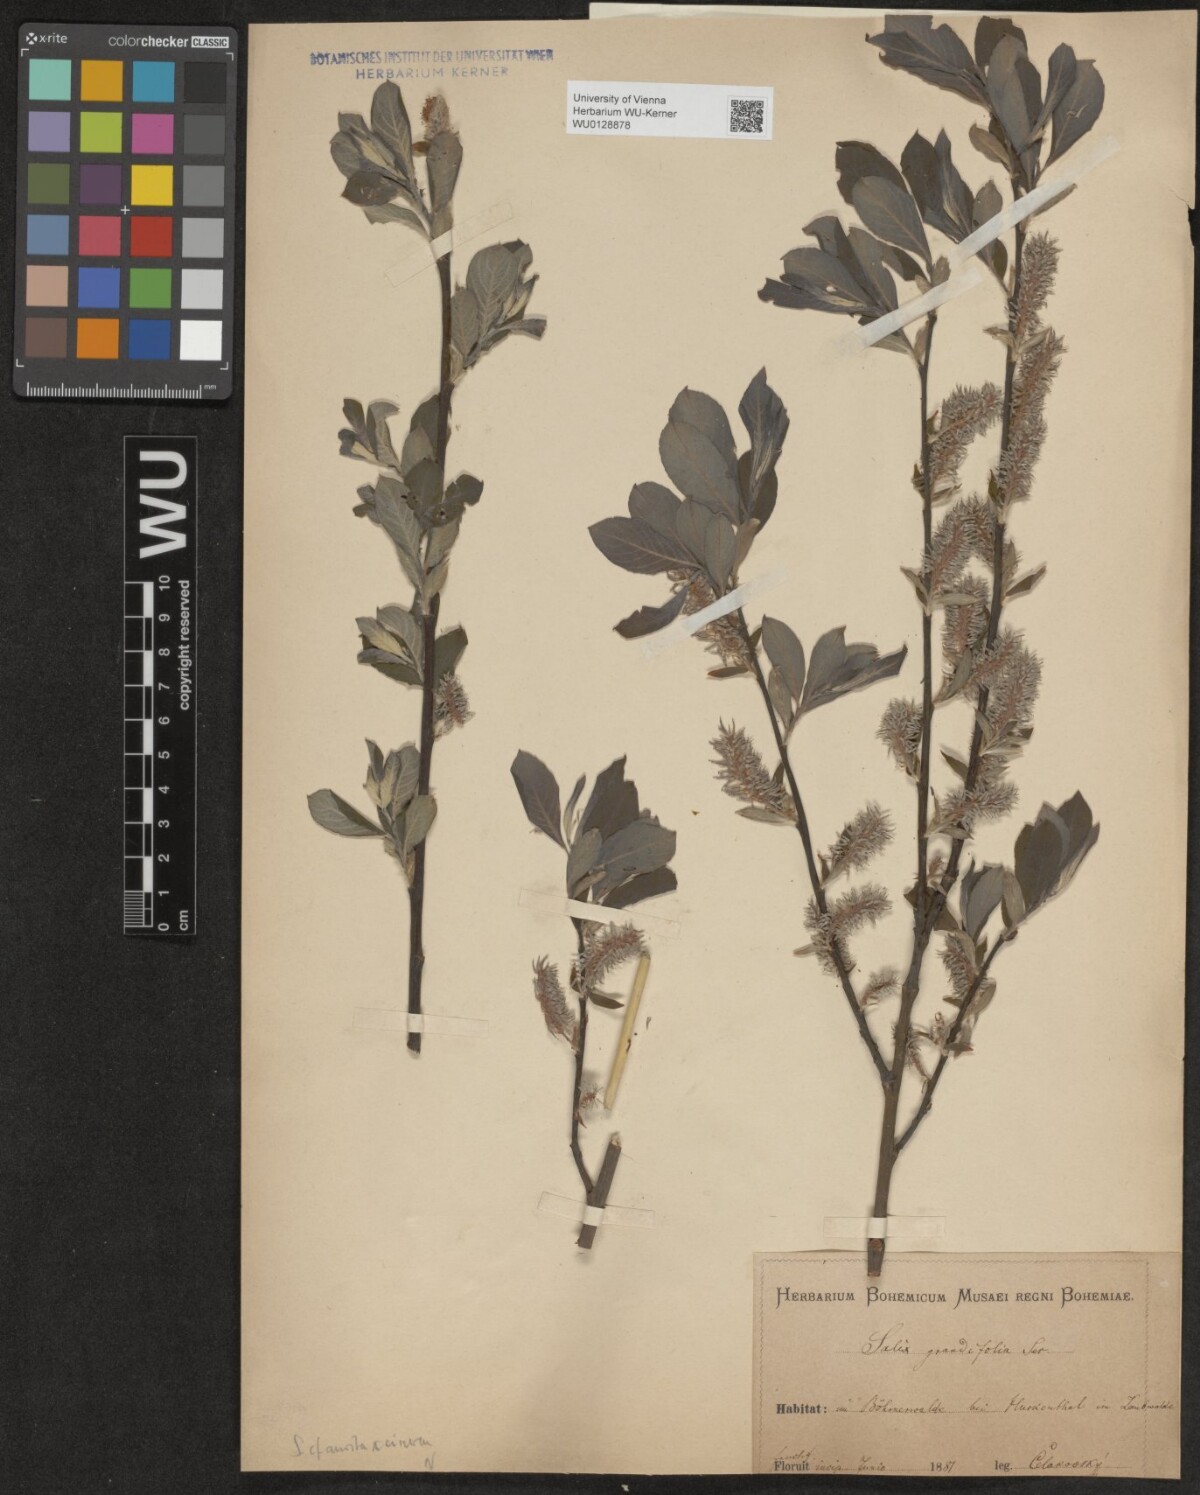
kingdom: Plantae
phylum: Tracheophyta
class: Magnoliopsida
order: Malpighiales
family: Salicaceae
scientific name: Salicaceae
